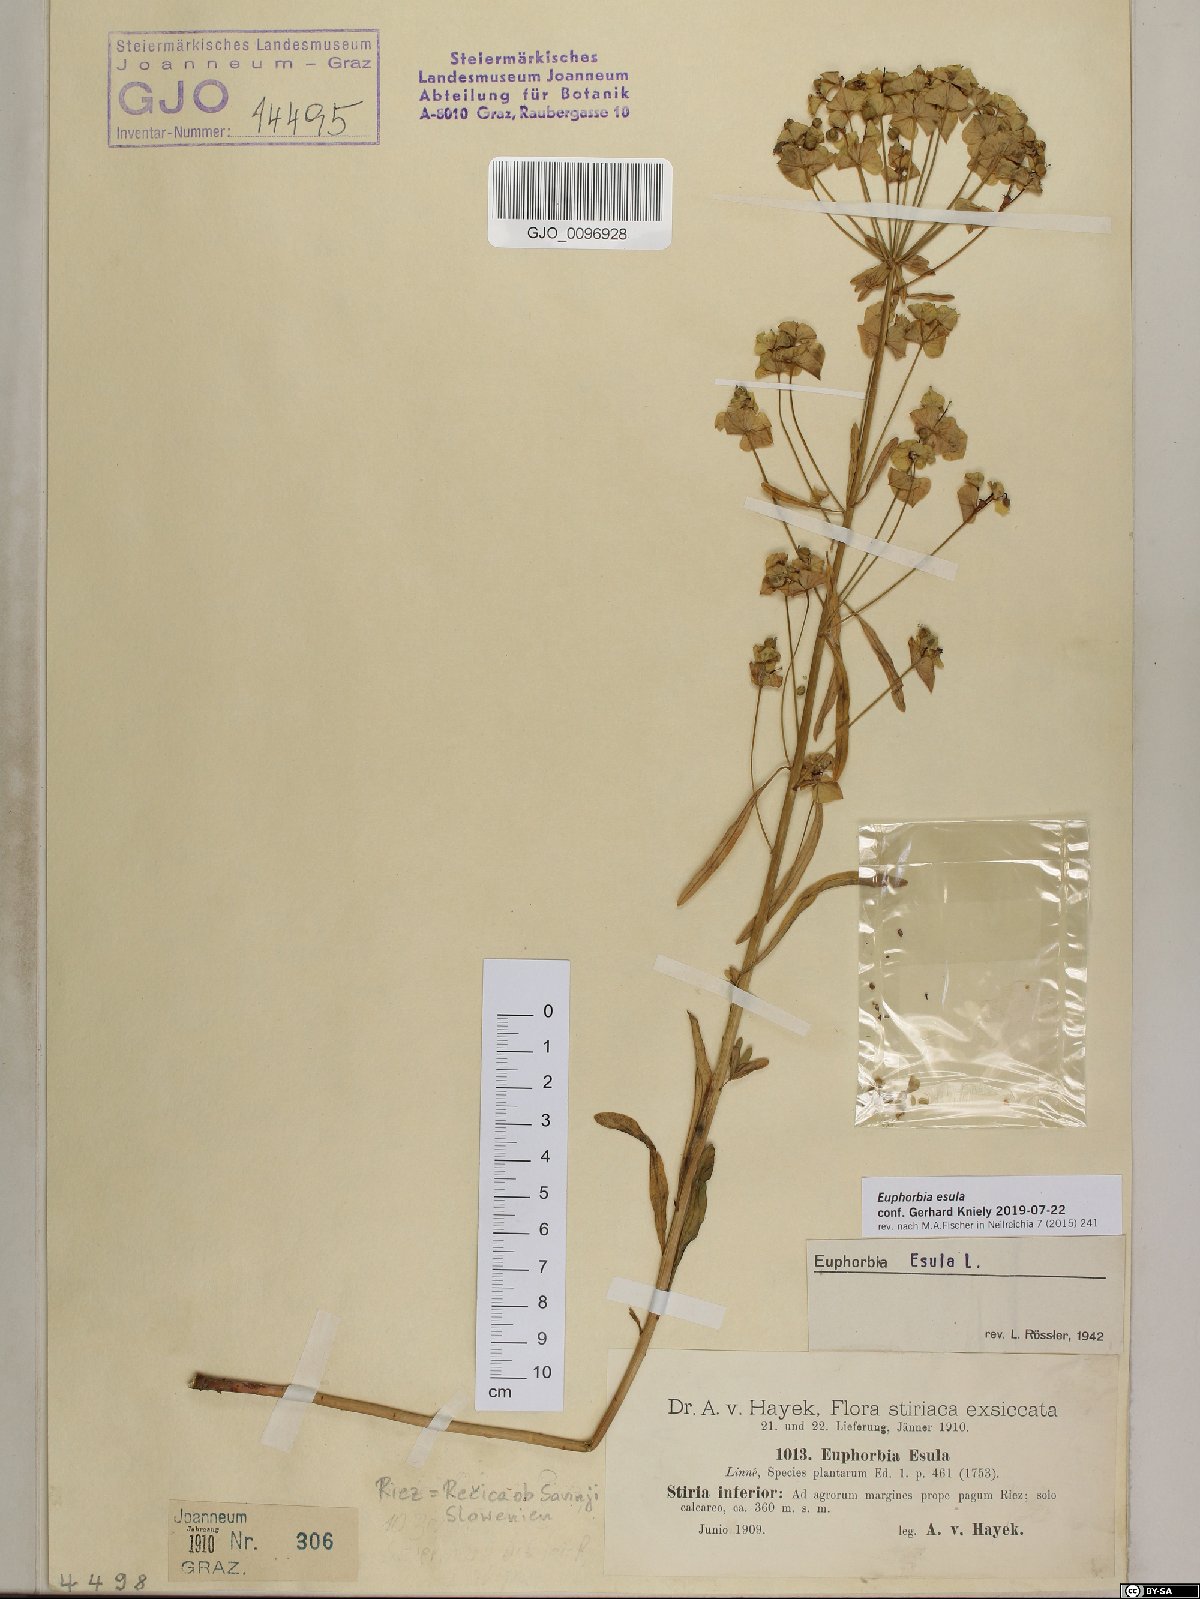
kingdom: Plantae
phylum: Tracheophyta
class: Magnoliopsida
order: Malpighiales
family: Euphorbiaceae
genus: Euphorbia
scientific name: Euphorbia esula
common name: Leafy spurge
